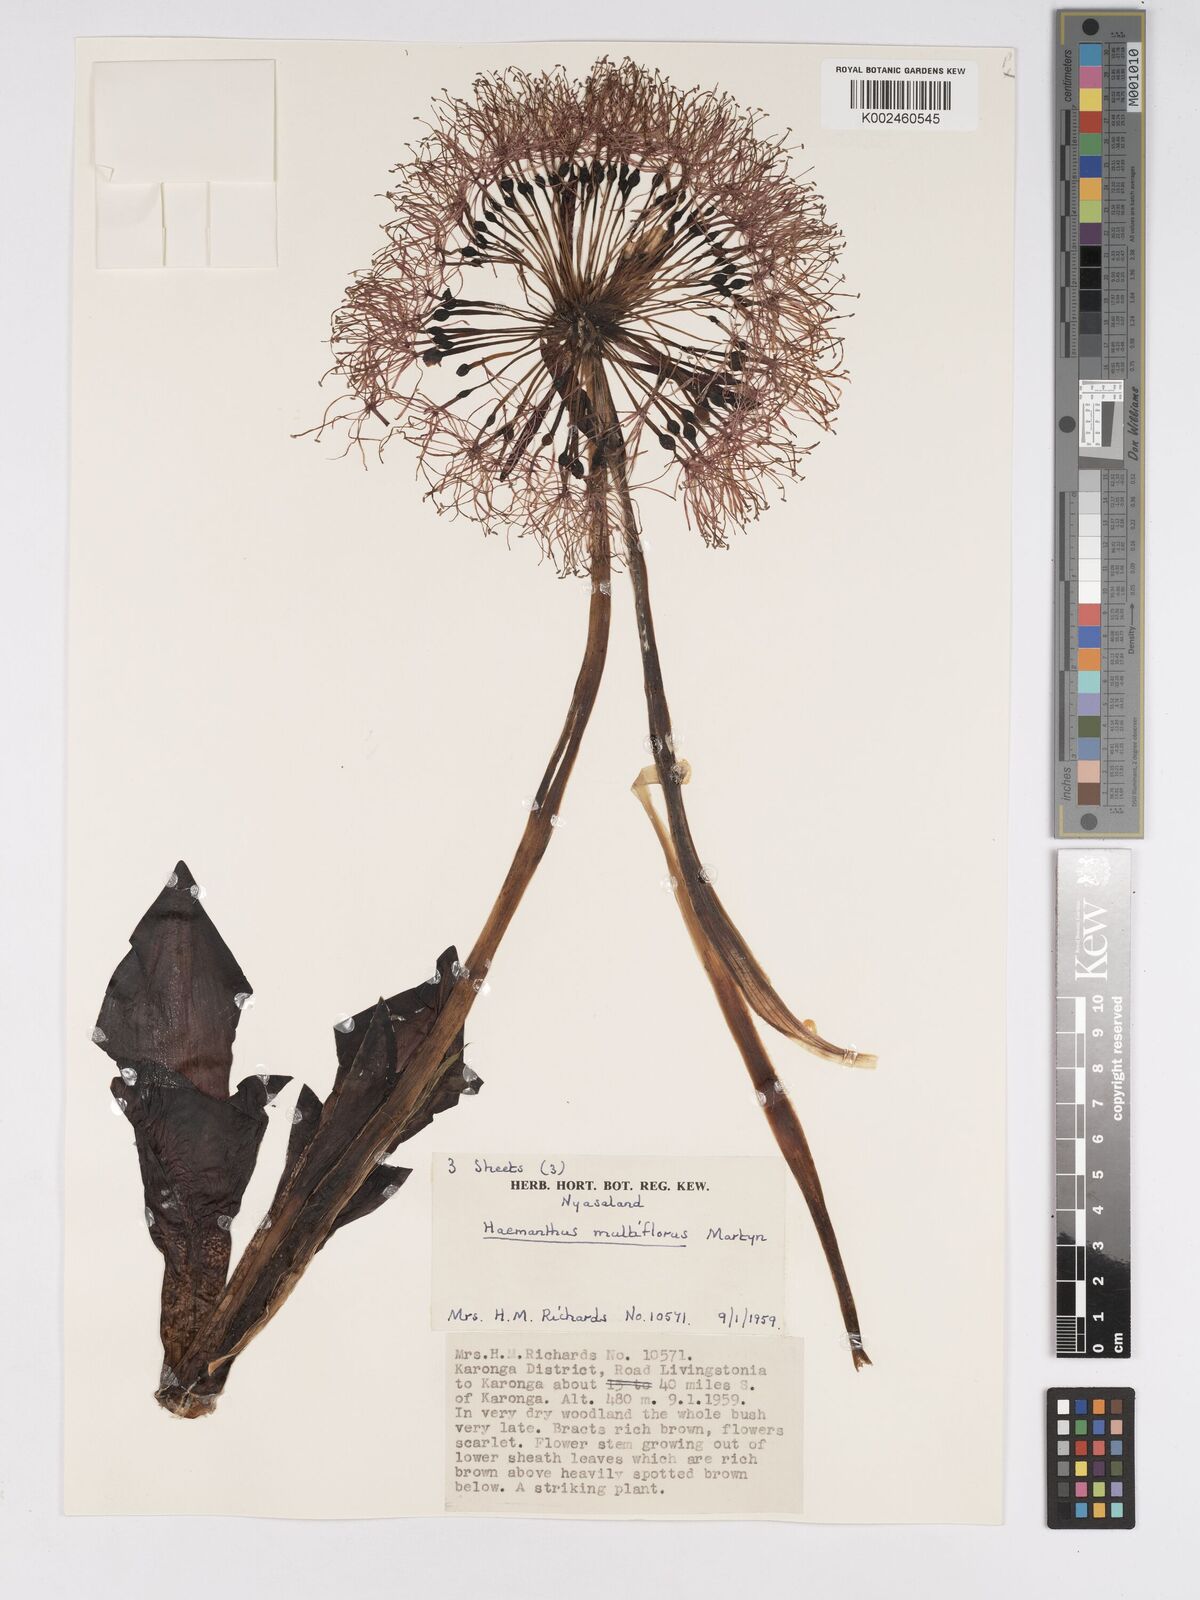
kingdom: Plantae
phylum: Tracheophyta
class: Liliopsida
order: Asparagales
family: Amaryllidaceae
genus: Scadoxus
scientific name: Scadoxus multiflorus
